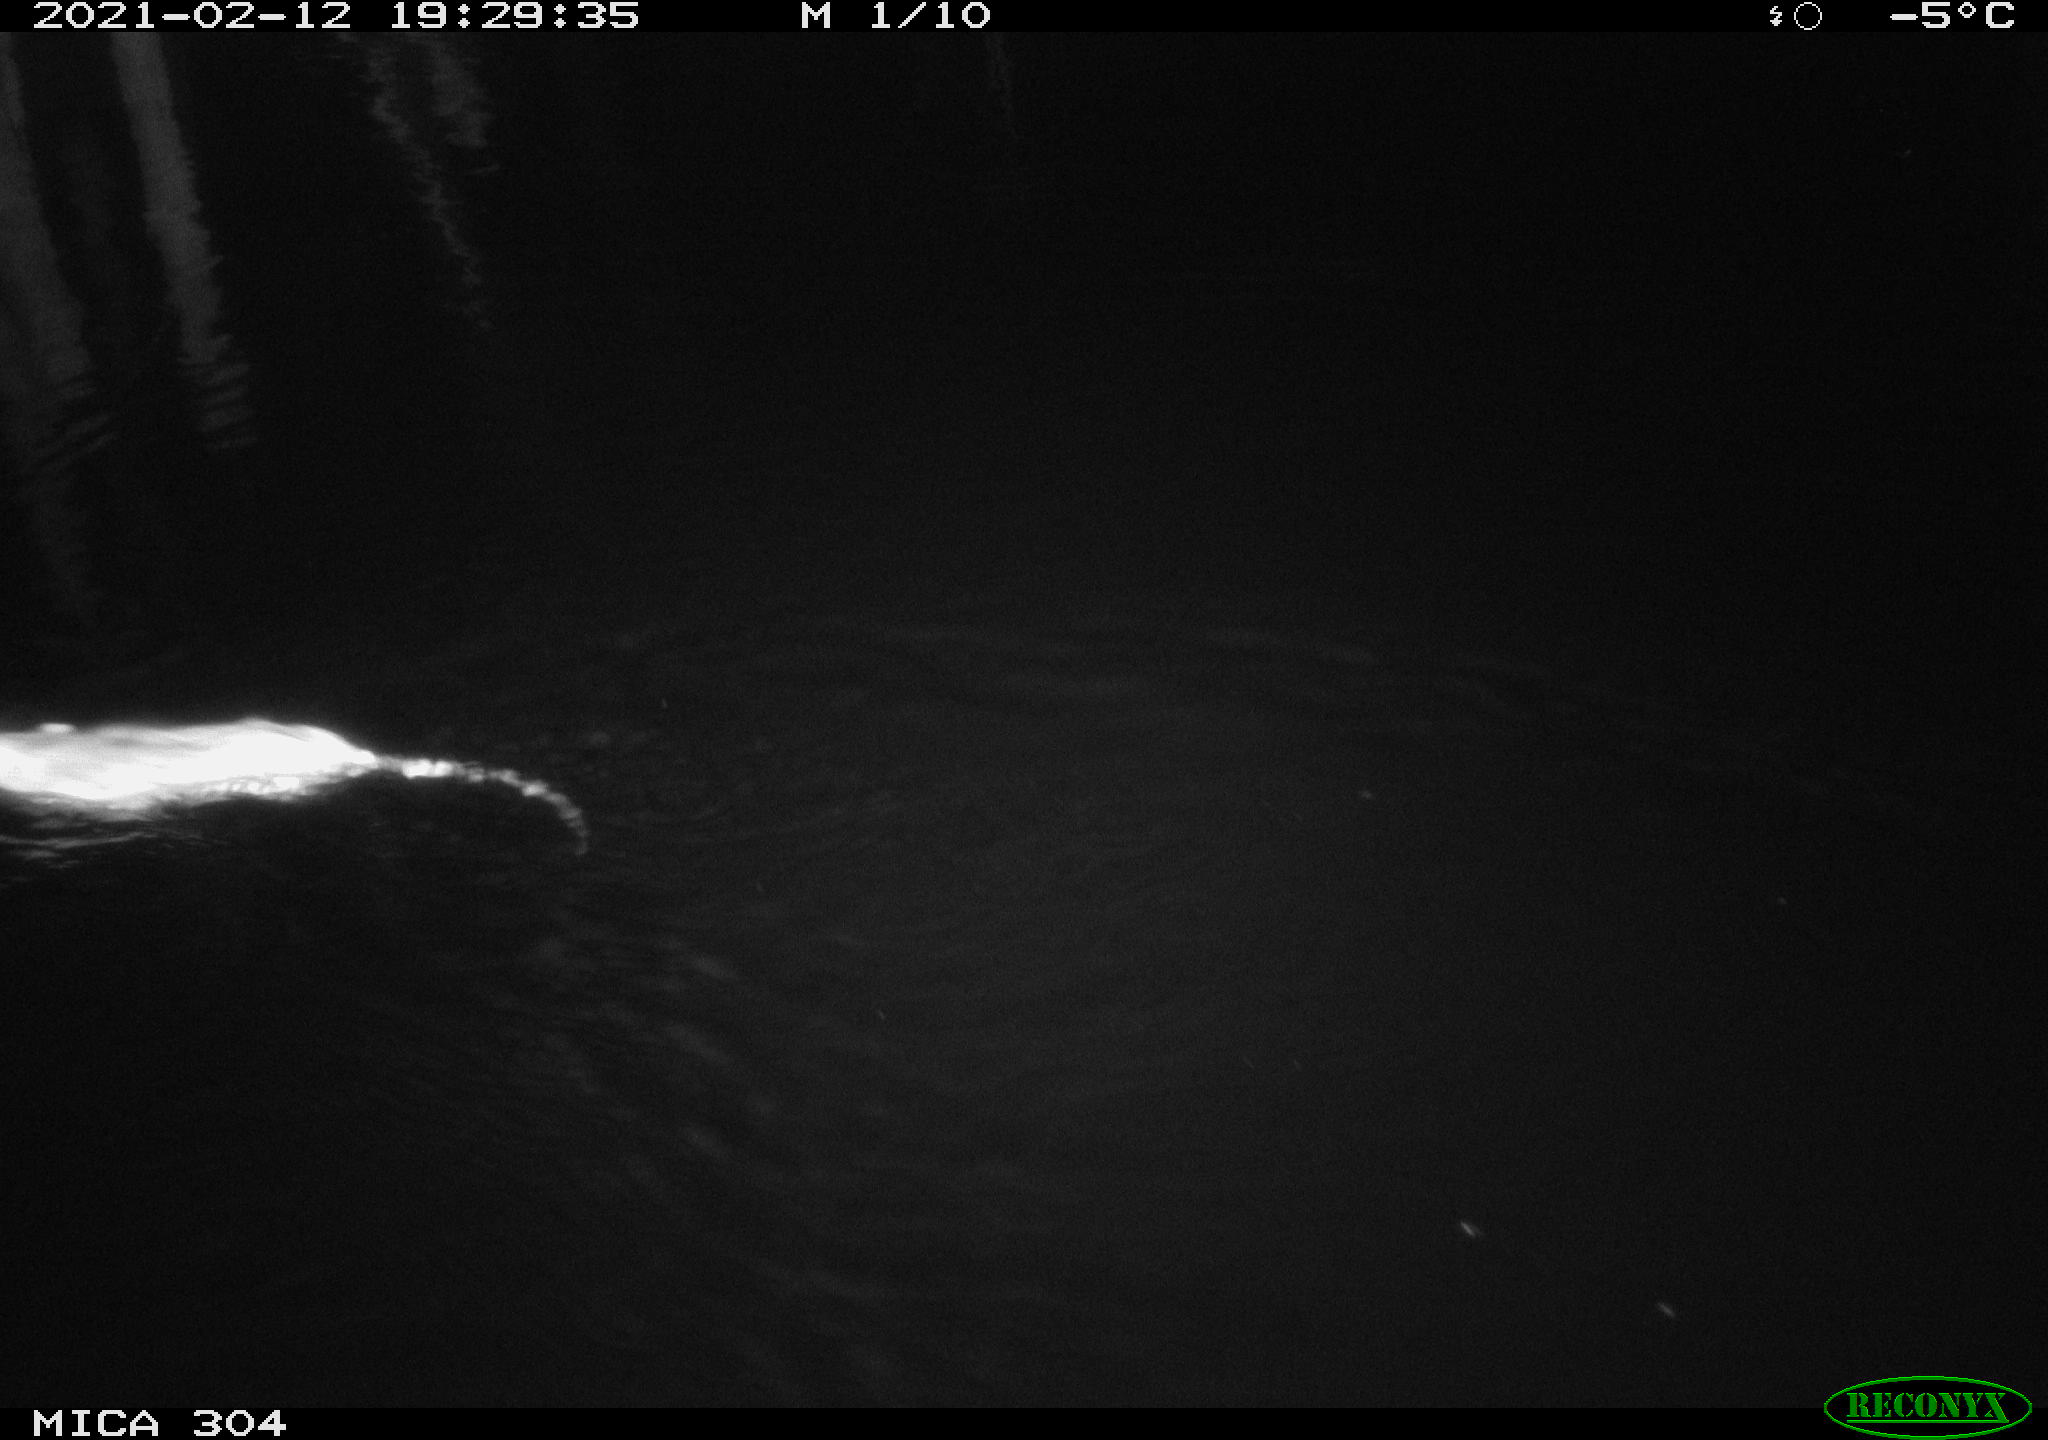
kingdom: Animalia
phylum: Chordata
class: Mammalia
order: Rodentia
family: Muridae
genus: Rattus
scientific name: Rattus norvegicus
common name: Brown rat
